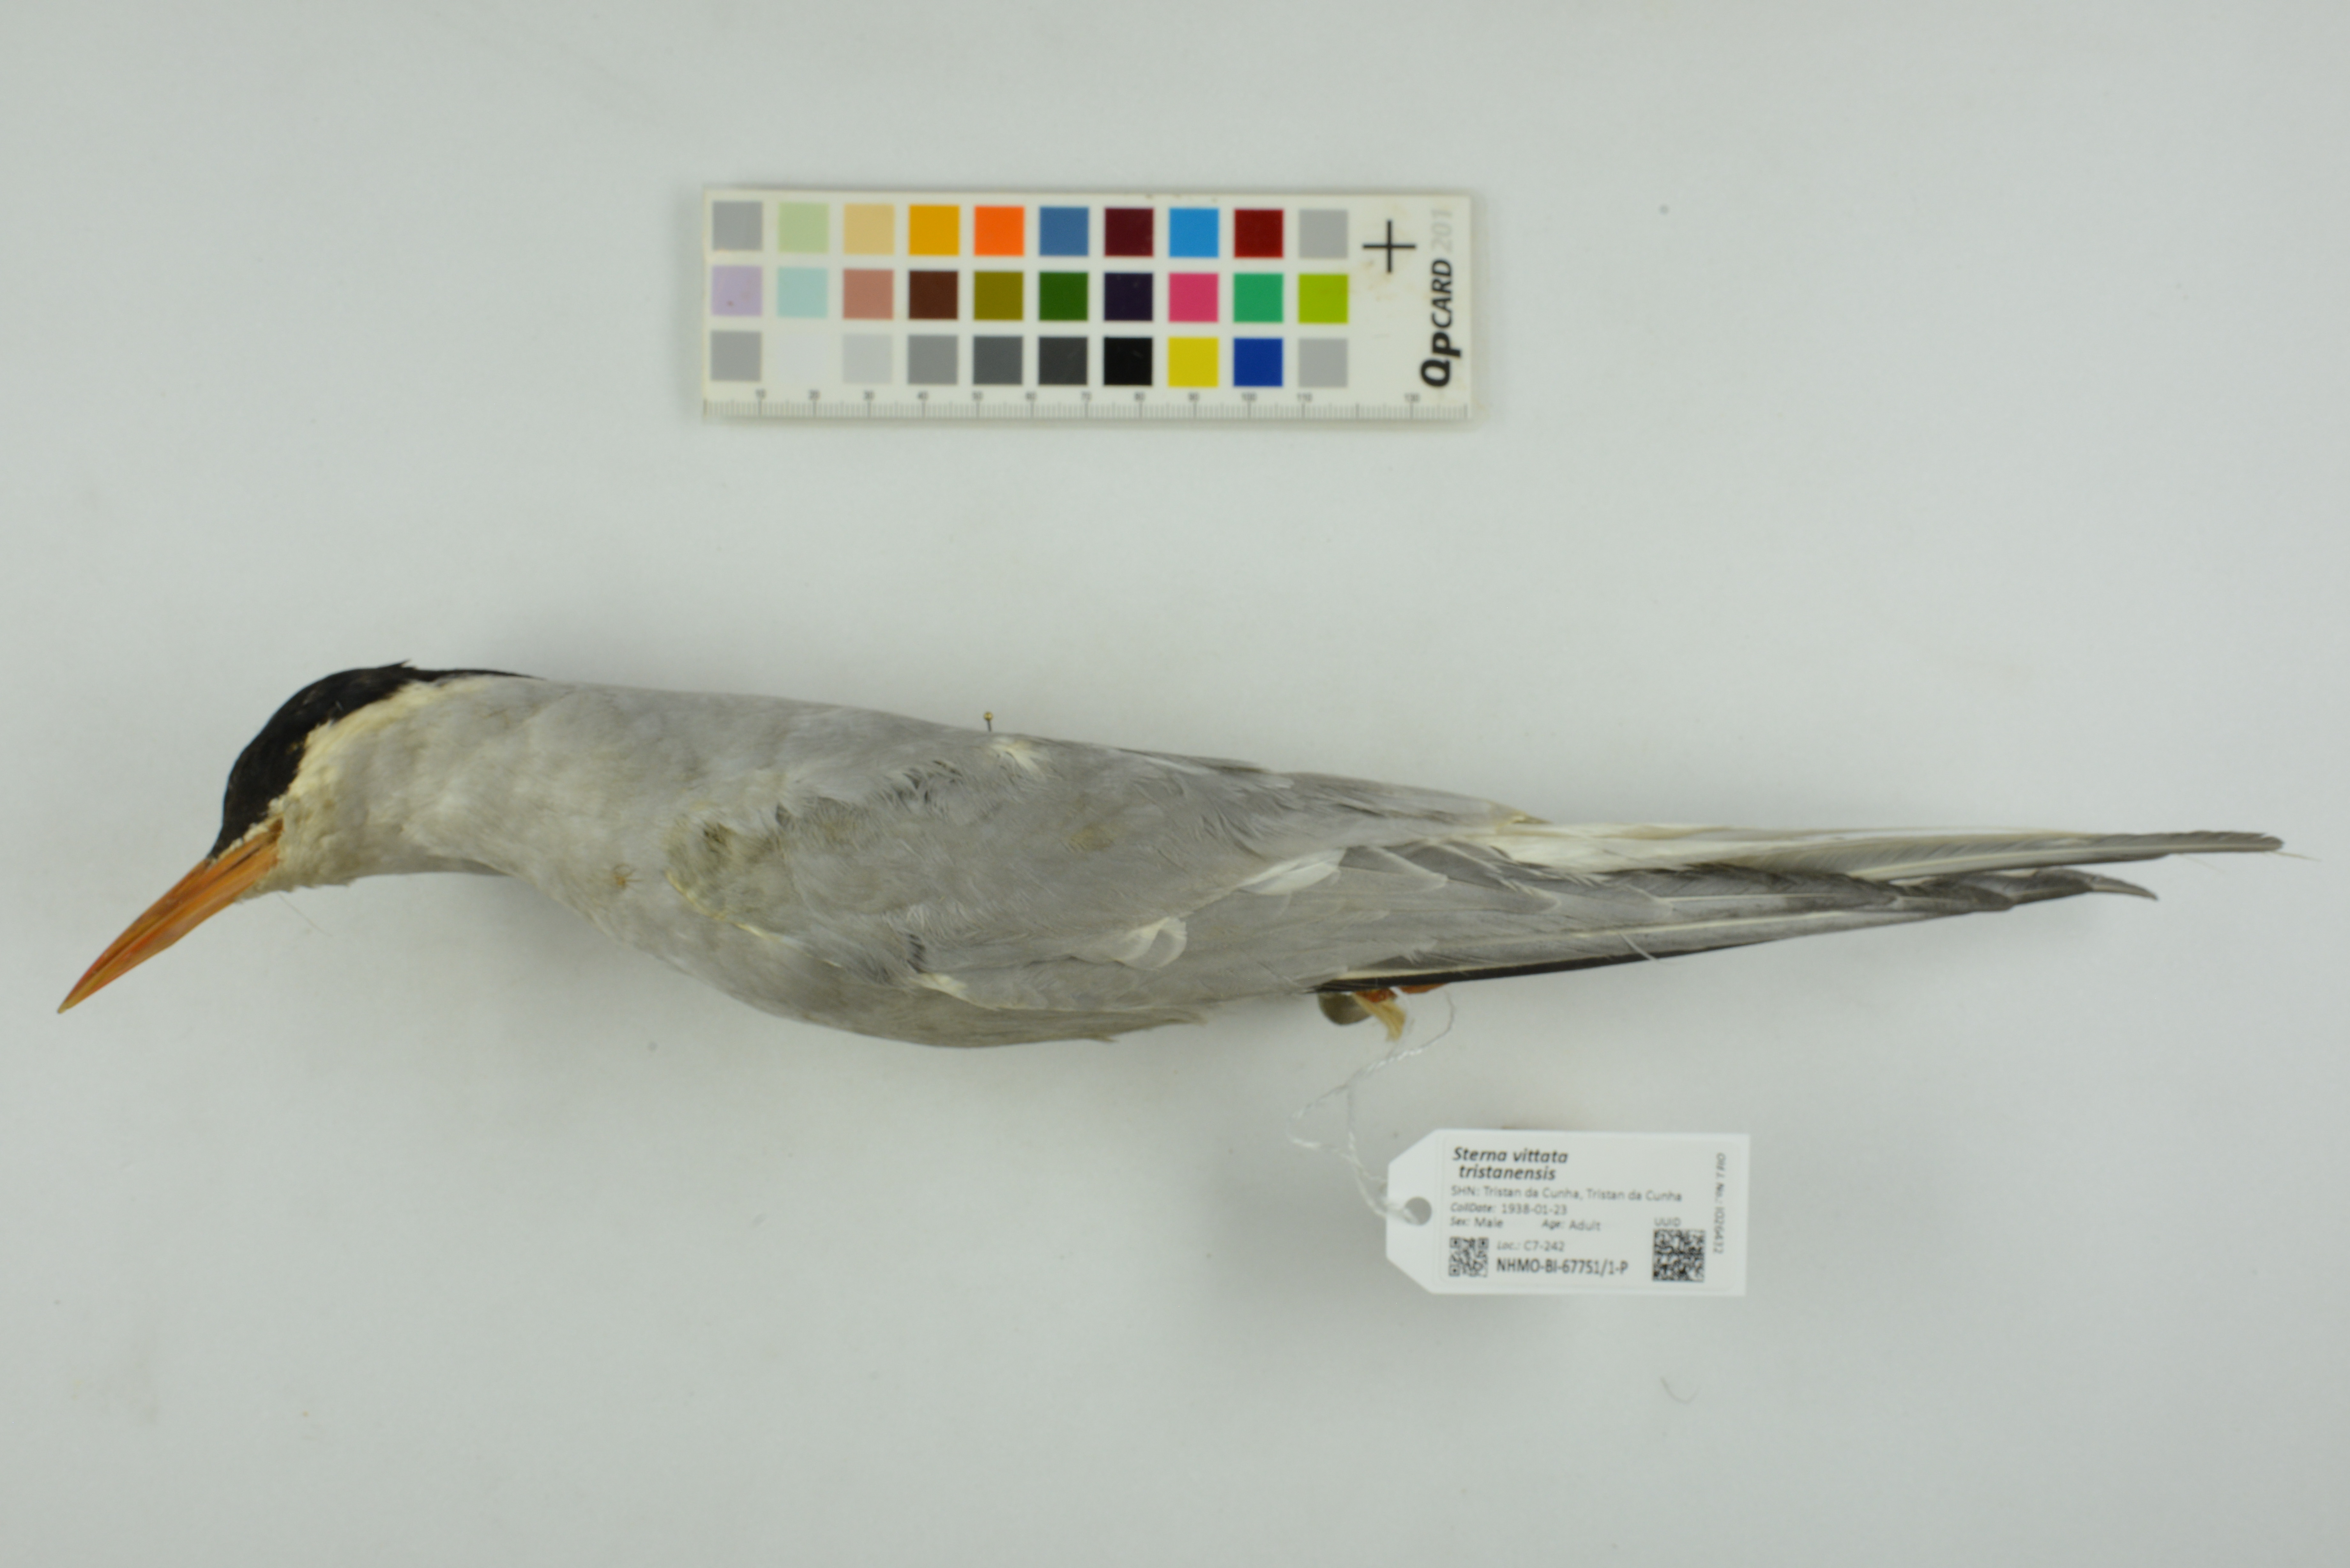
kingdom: Animalia
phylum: Chordata
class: Aves
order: Charadriiformes
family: Laridae
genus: Sterna
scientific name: Sterna vittata
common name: Antarctic tern
